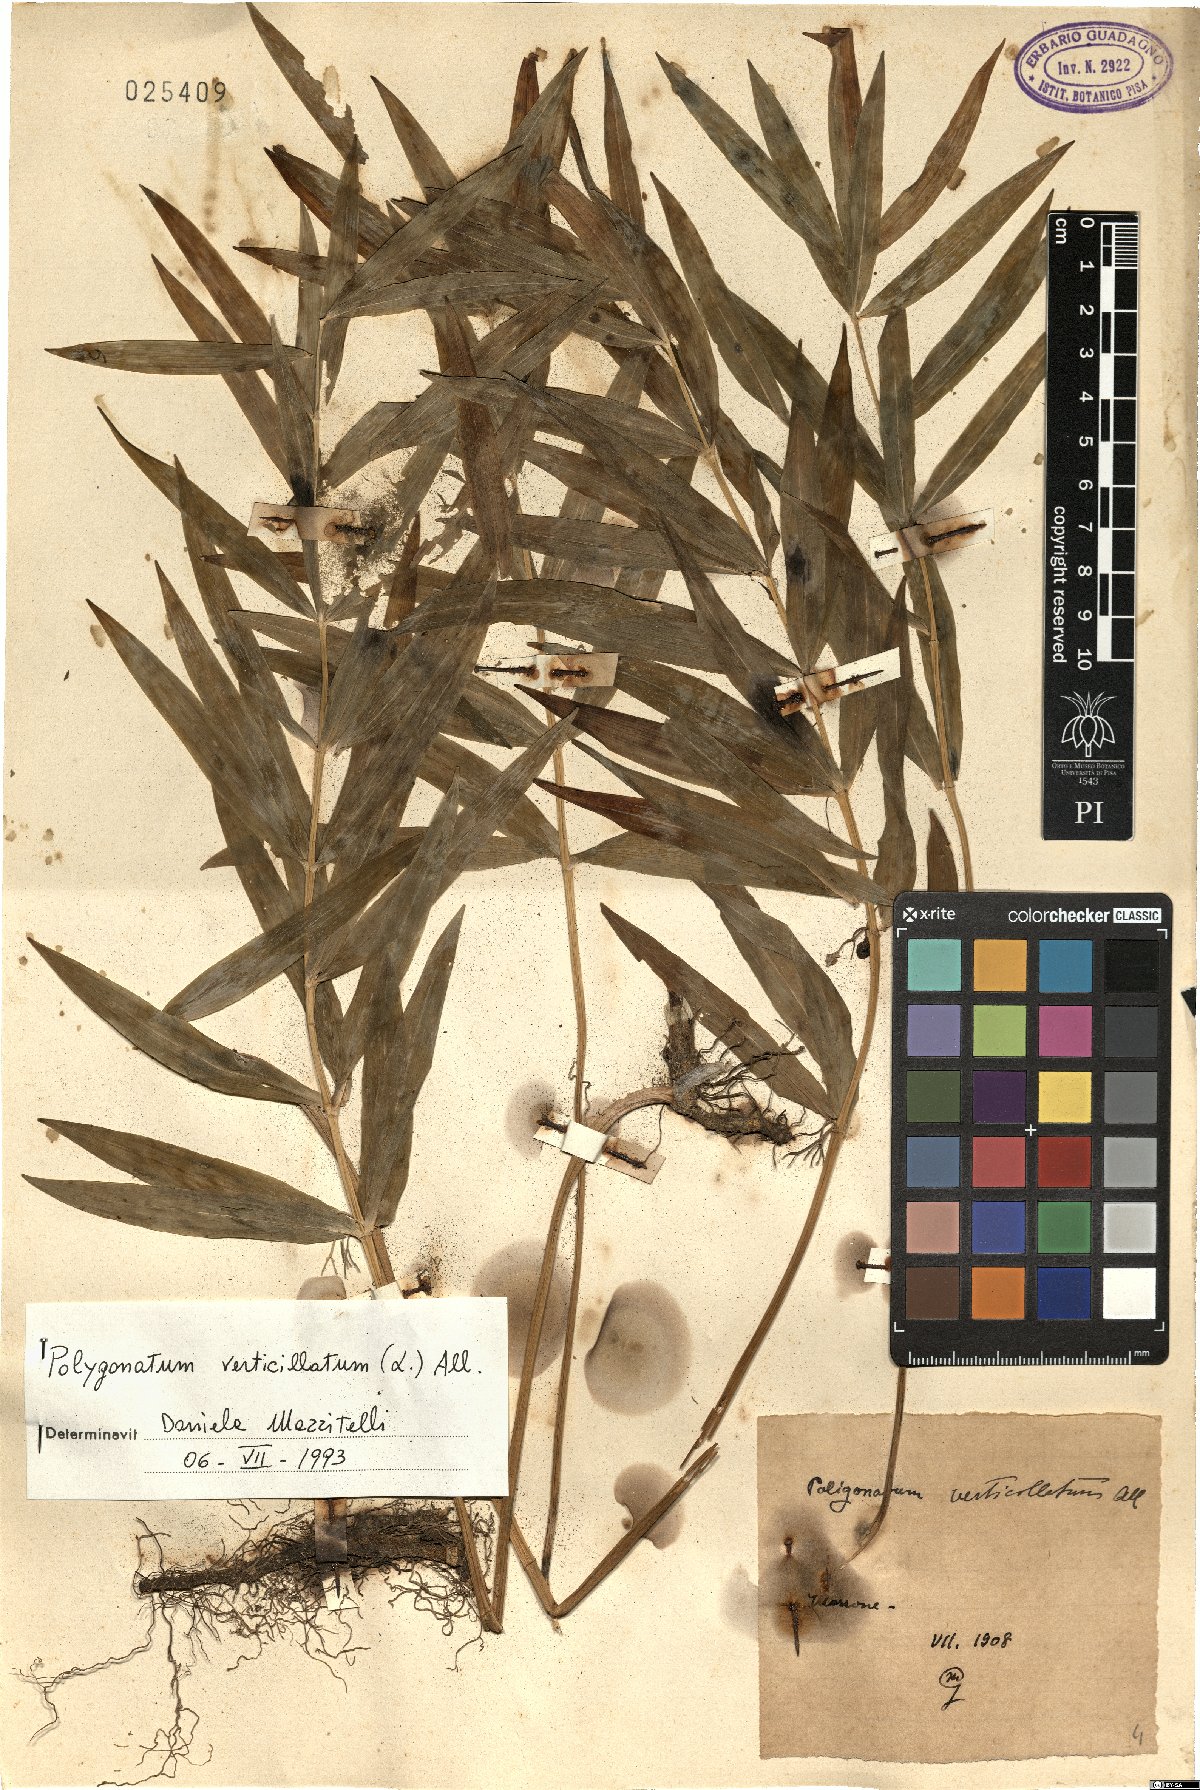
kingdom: Plantae
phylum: Tracheophyta
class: Liliopsida
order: Asparagales
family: Asparagaceae
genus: Polygonatum
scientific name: Polygonatum verticillatum
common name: Whorled solomon's-seal
